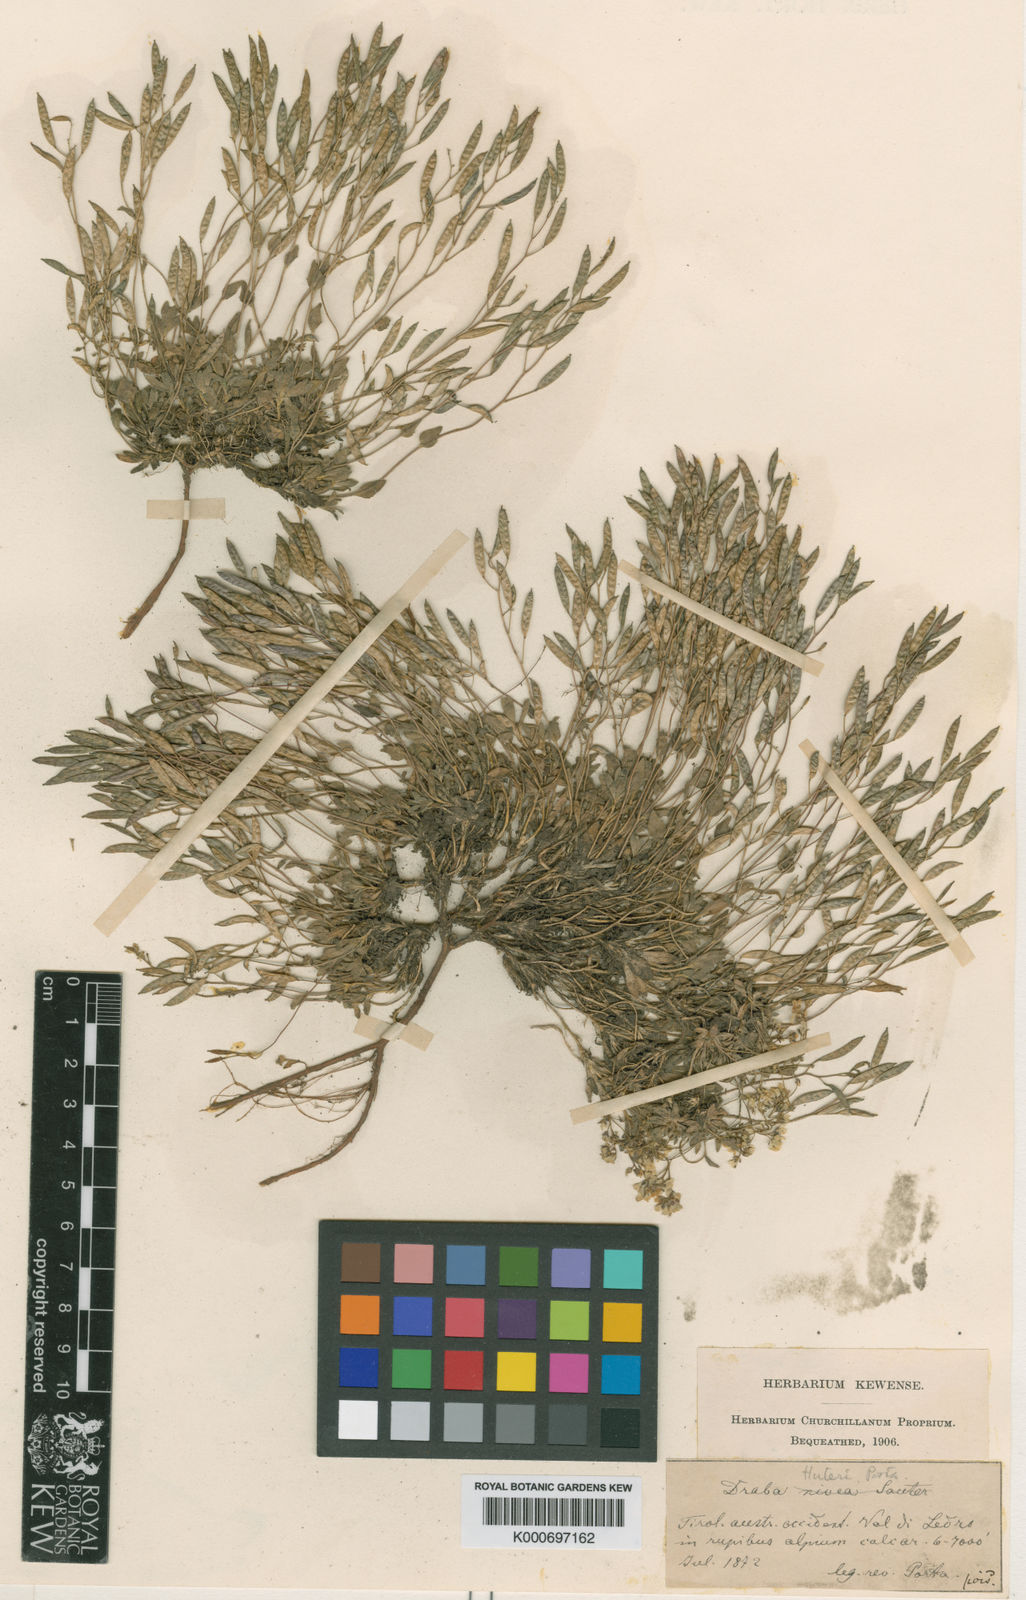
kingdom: Plantae
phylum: Tracheophyta
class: Magnoliopsida
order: Brassicales
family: Brassicaceae
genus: Draba
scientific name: Draba dubia
